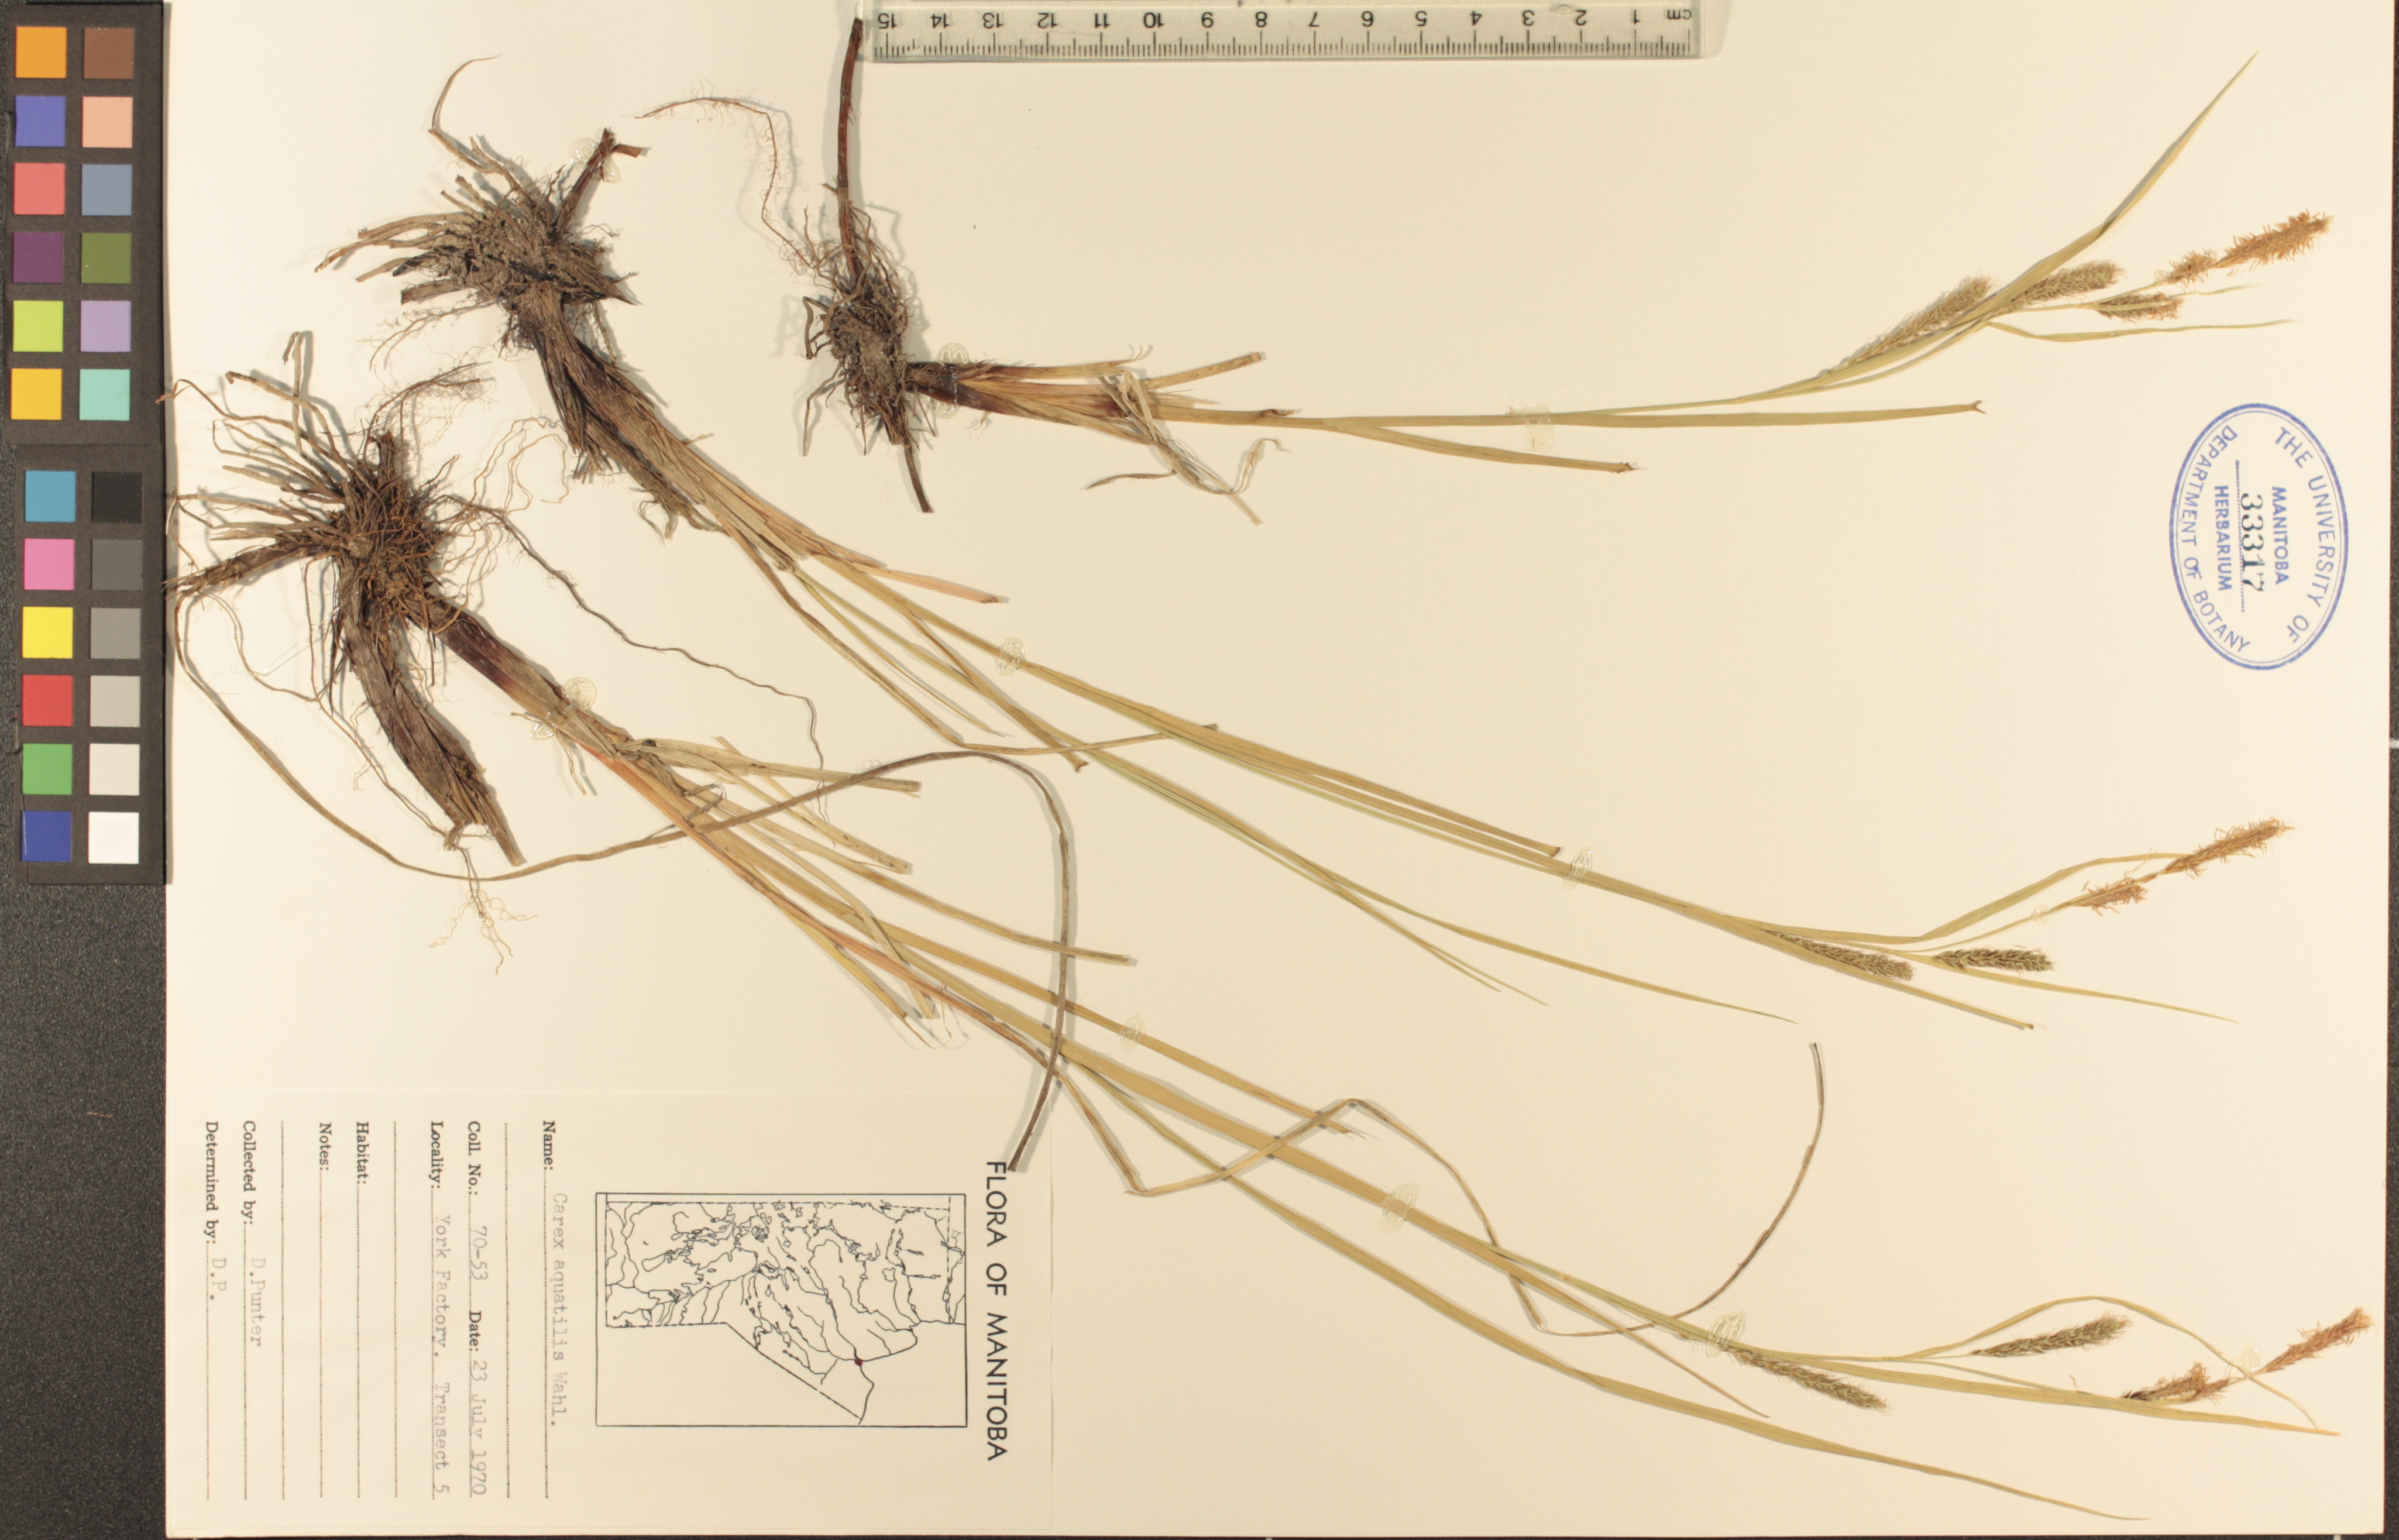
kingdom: Plantae
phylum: Tracheophyta
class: Liliopsida
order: Poales
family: Cyperaceae
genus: Carex
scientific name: Carex aquatilis
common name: Water sedge
